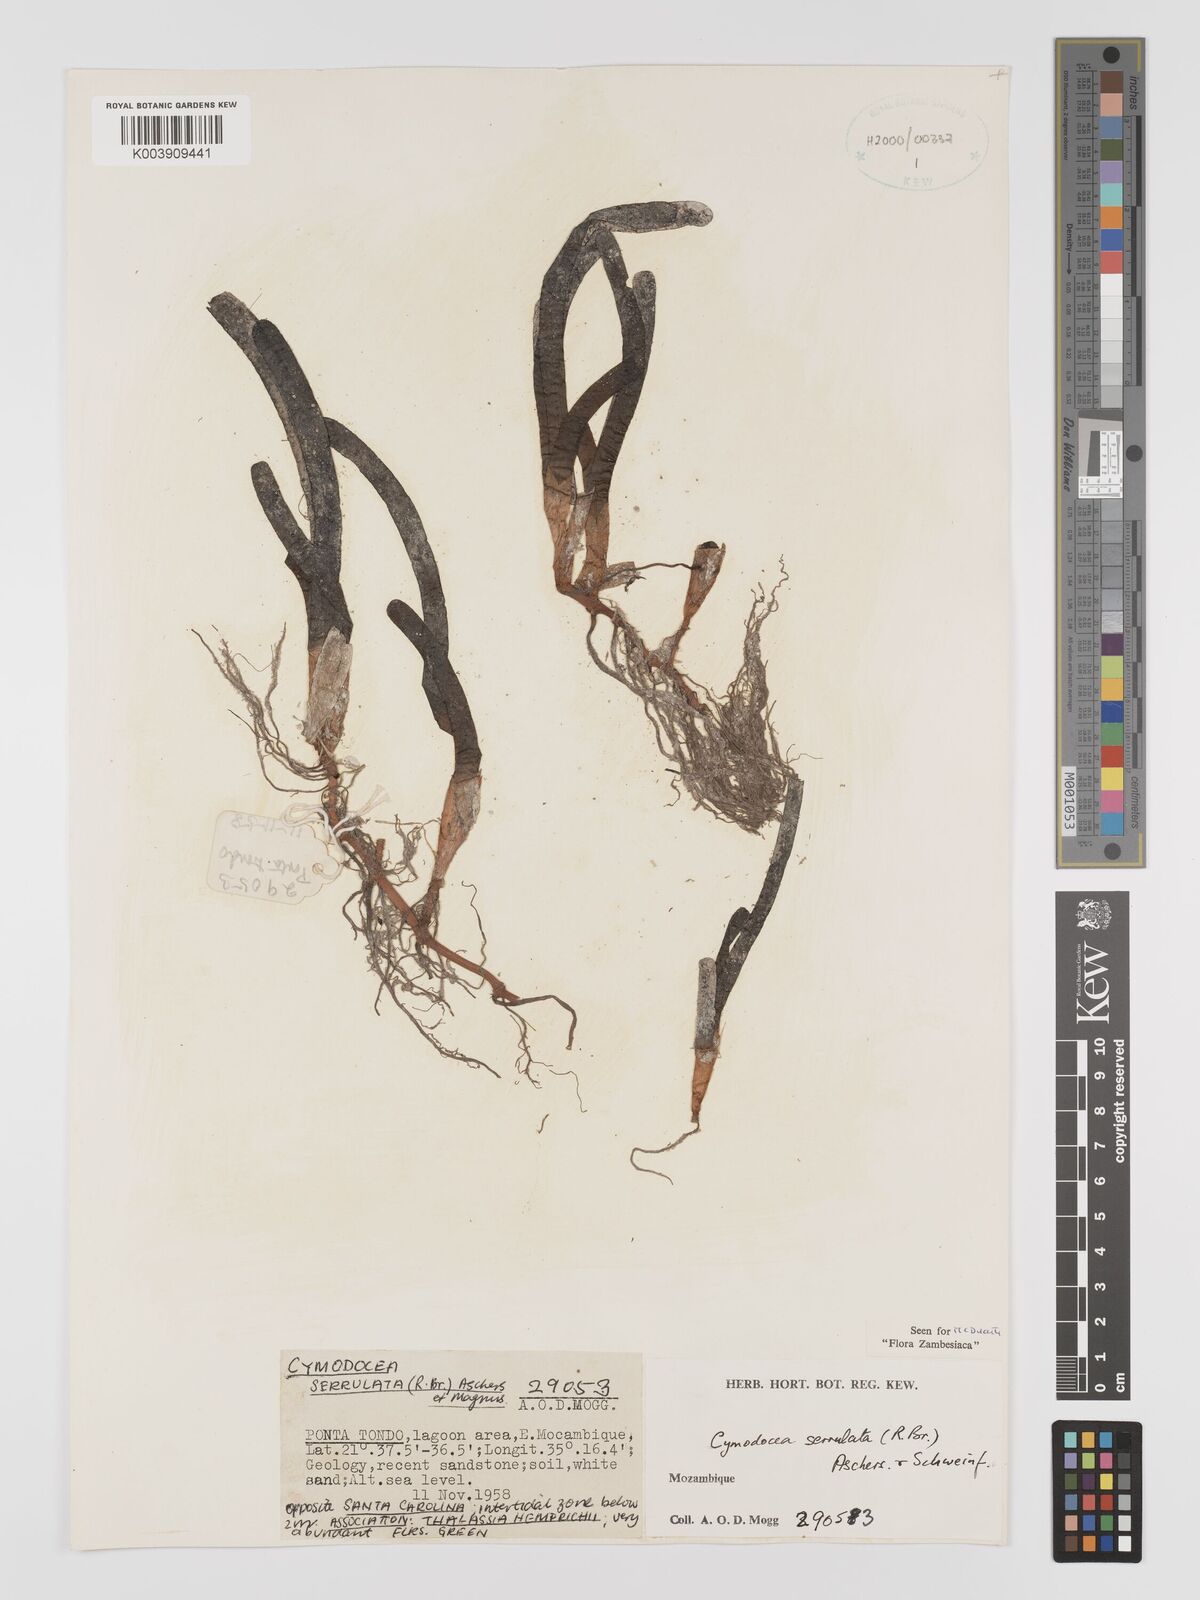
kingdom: Plantae
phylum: Tracheophyta
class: Liliopsida
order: Alismatales
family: Cymodoceaceae
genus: Oceana
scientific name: Oceana serrulata
